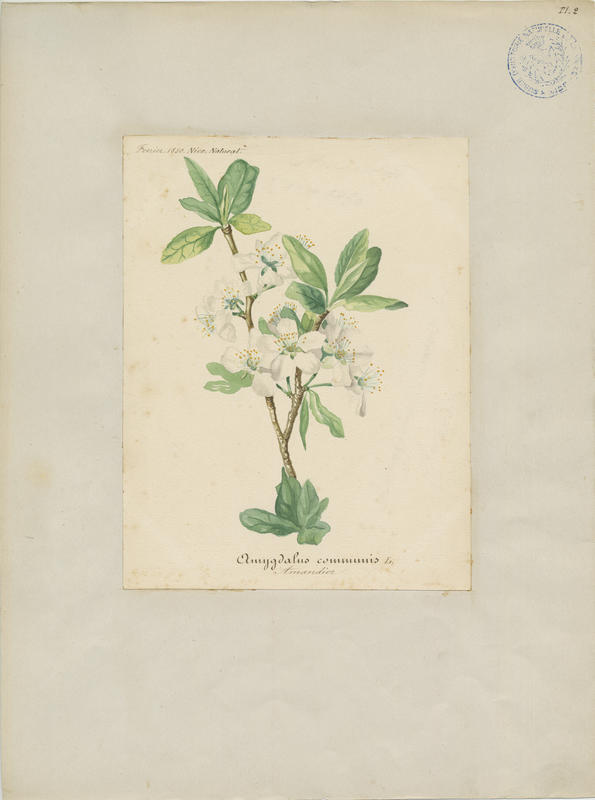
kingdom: Plantae
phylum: Tracheophyta
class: Magnoliopsida
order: Rosales
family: Rosaceae
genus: Prunus
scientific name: Prunus amygdalus
